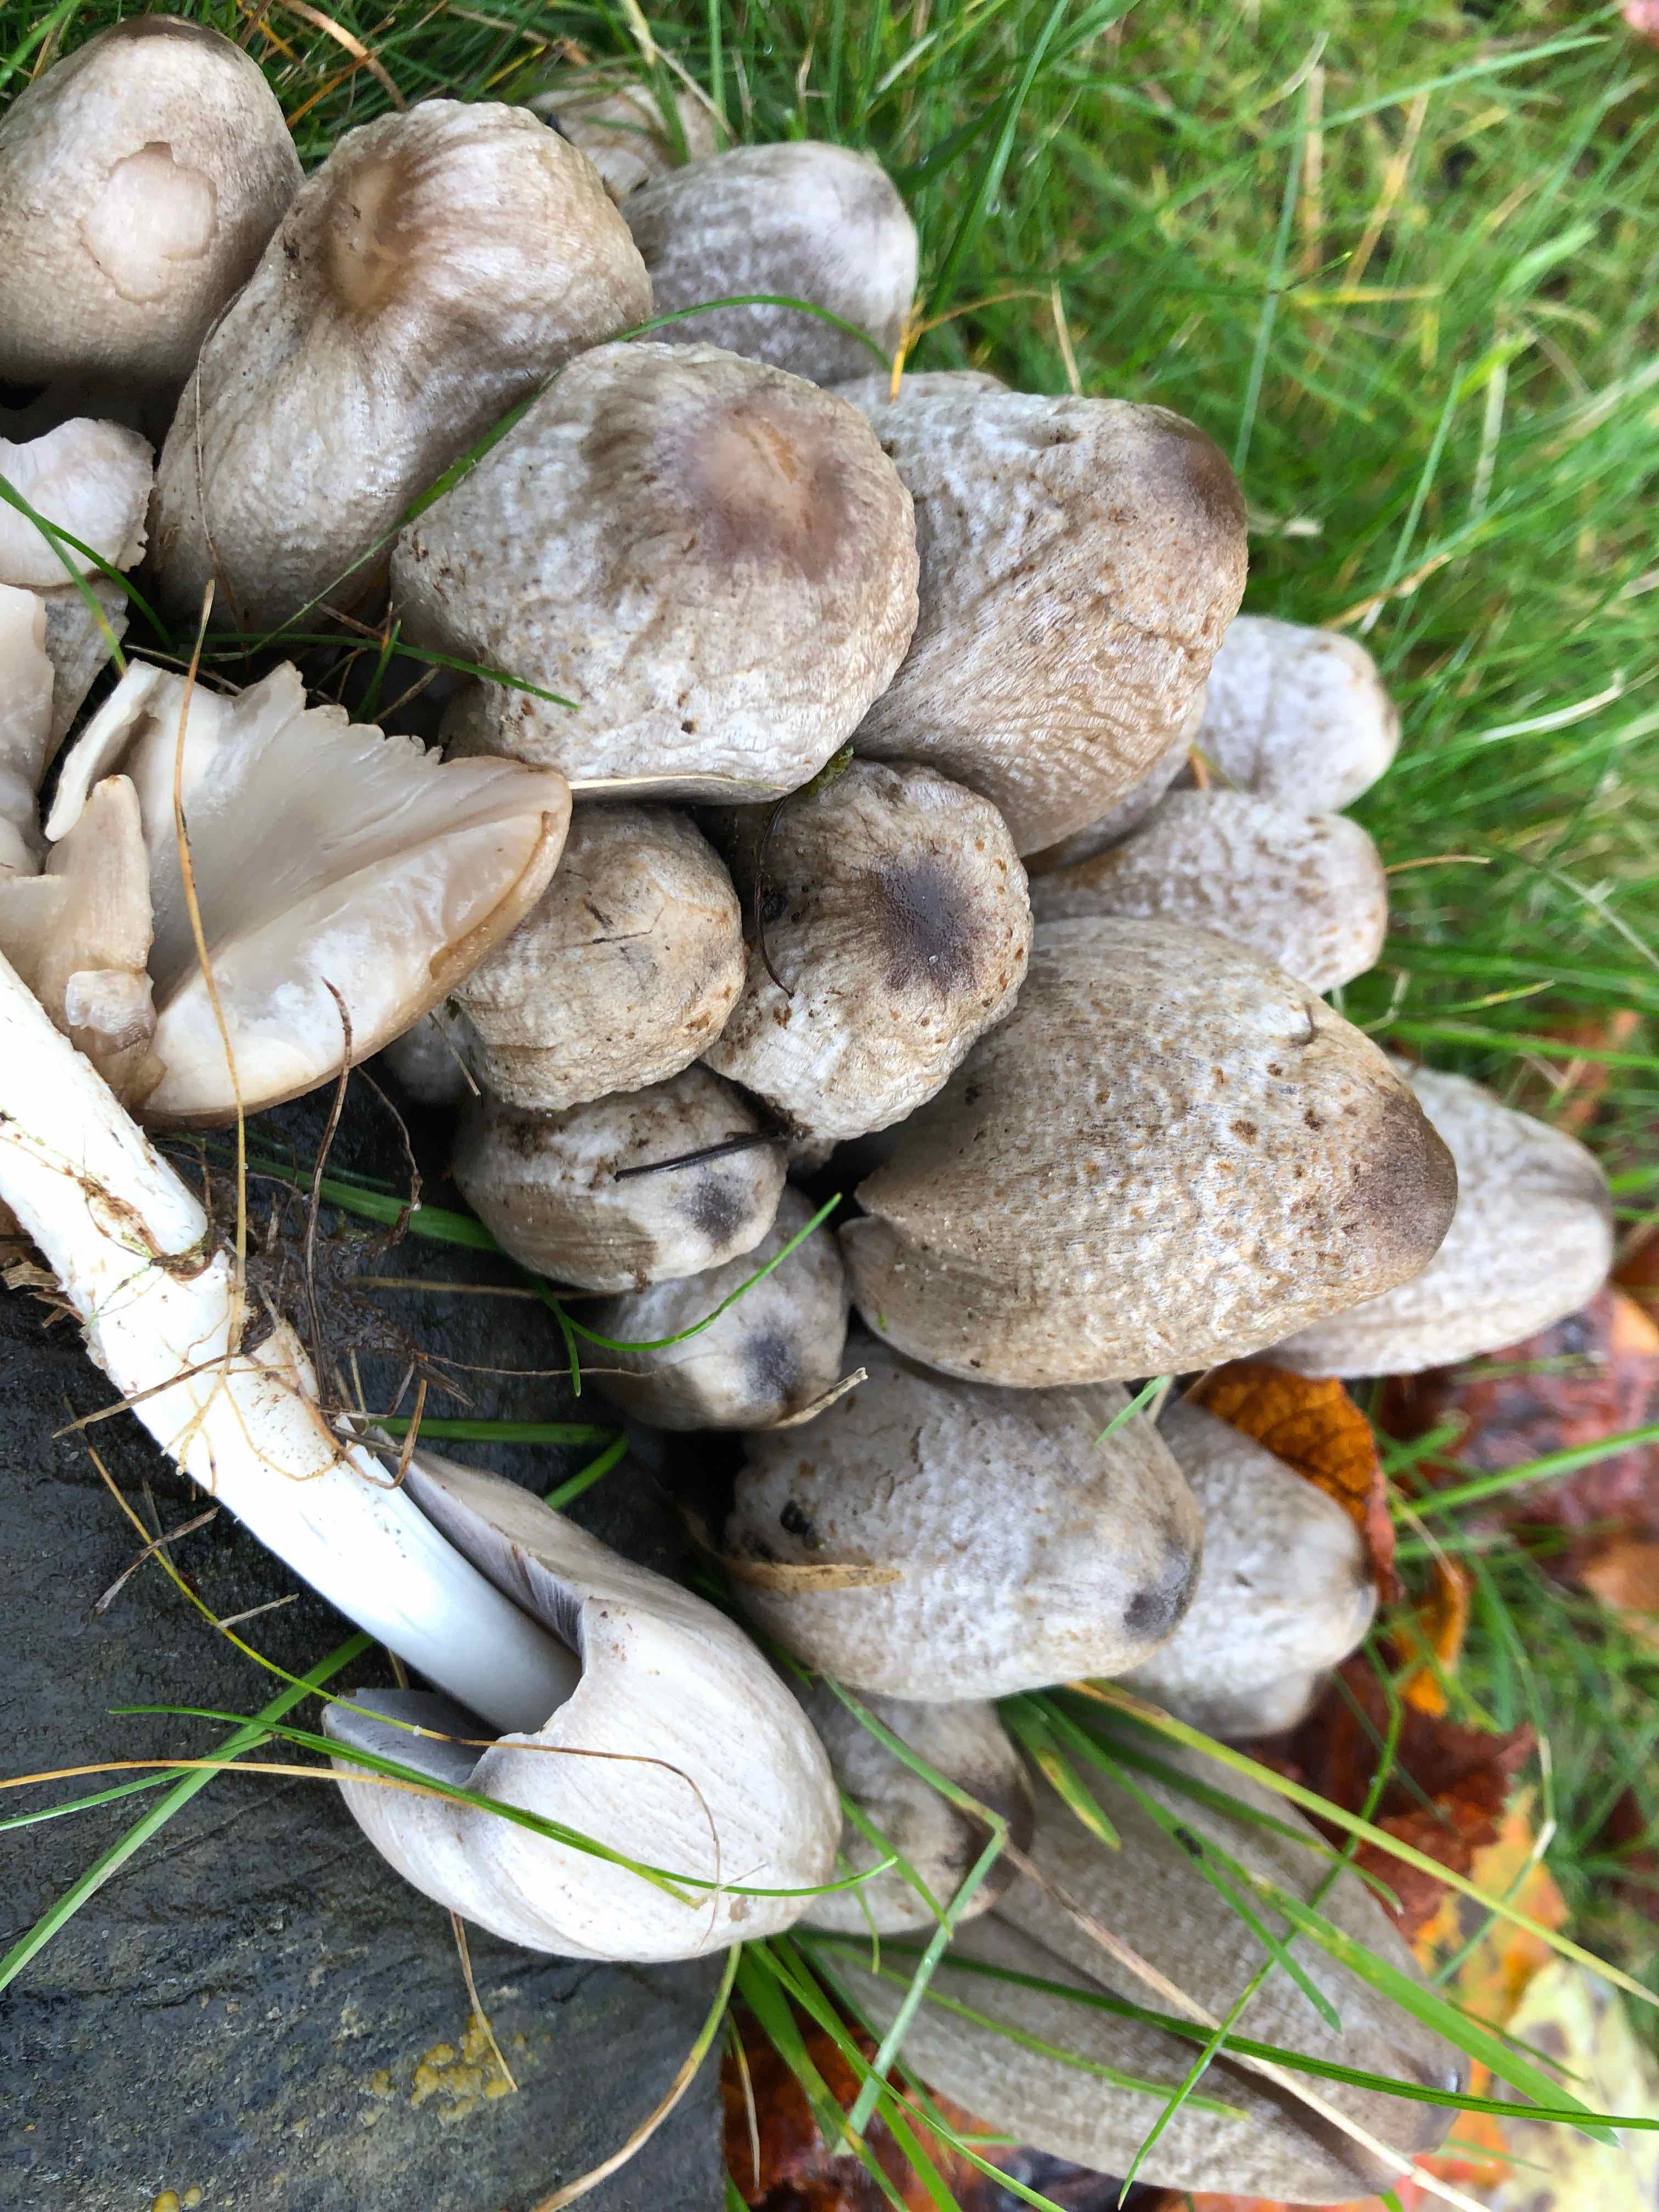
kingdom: Fungi
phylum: Basidiomycota
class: Agaricomycetes
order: Agaricales
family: Psathyrellaceae
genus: Coprinopsis
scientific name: Coprinopsis atramentaria
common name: almindelig blækhat
